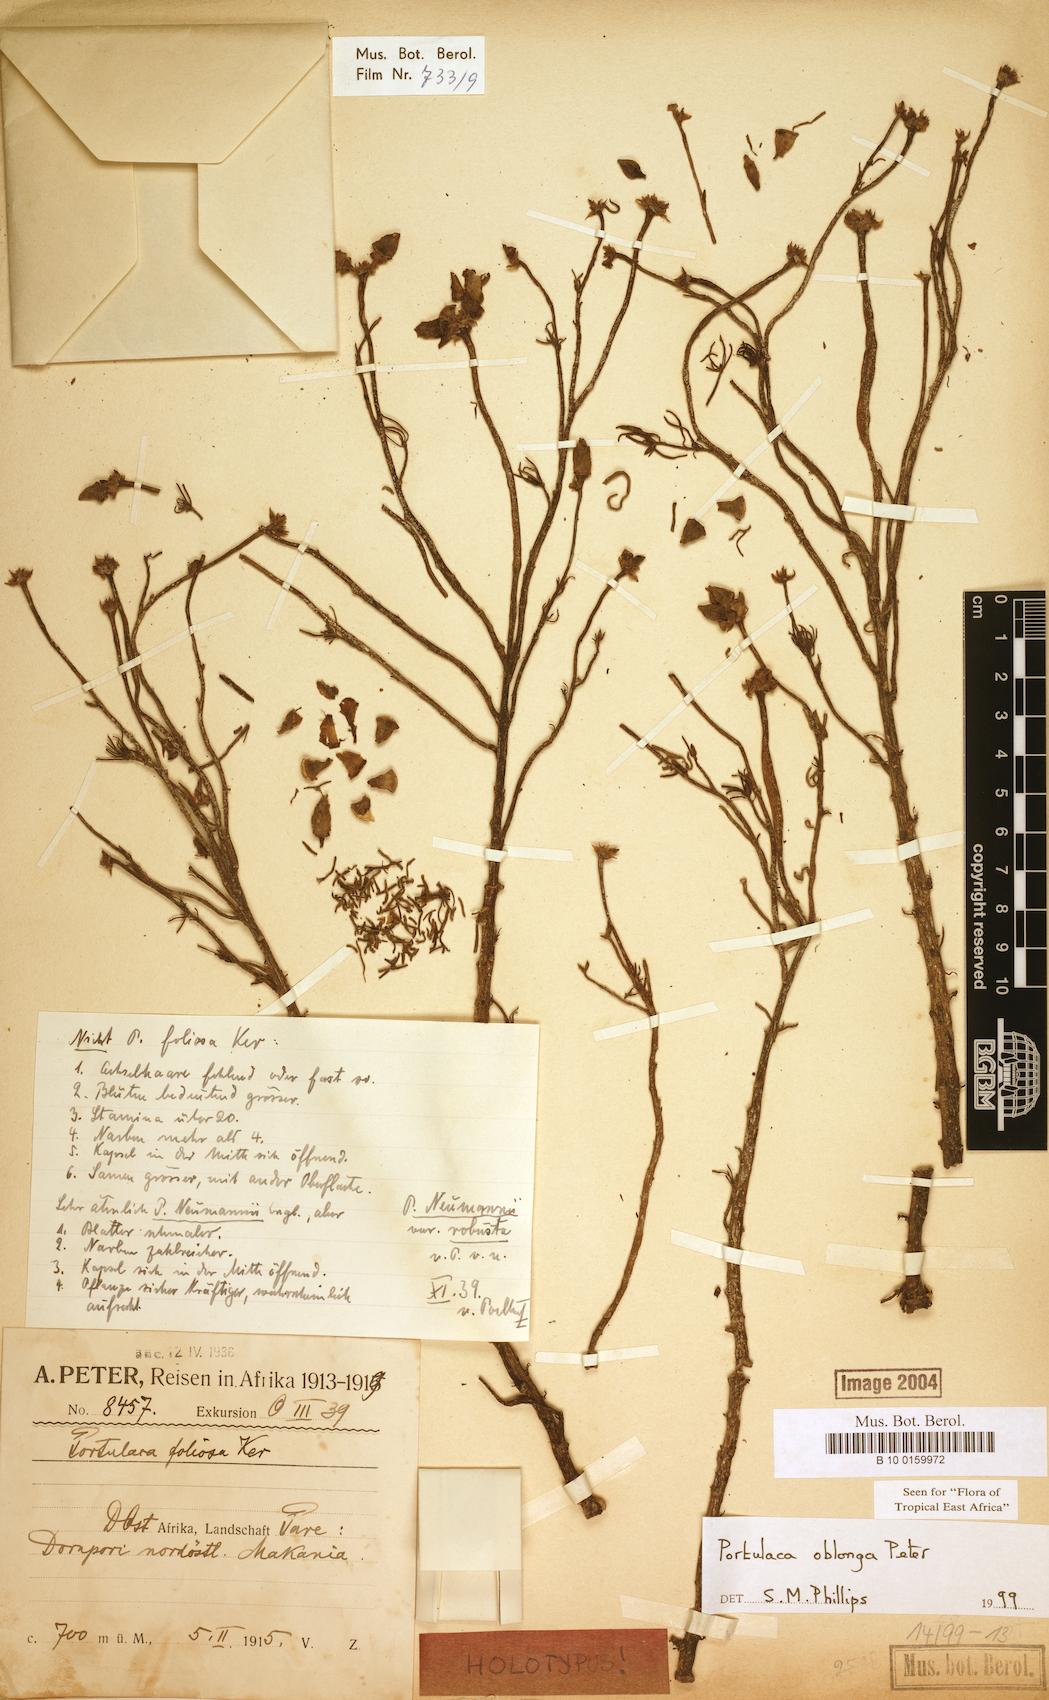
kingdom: Plantae
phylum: Tracheophyta
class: Magnoliopsida
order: Caryophyllales
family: Portulacaceae
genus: Portulaca
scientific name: Portulaca oblonga
